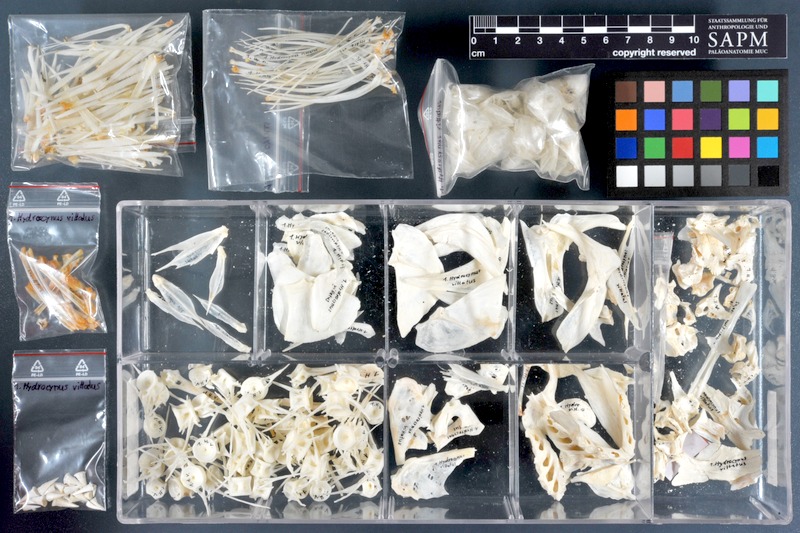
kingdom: Animalia
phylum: Chordata
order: Characiformes
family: Alestidae
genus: Hydrocynus
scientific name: Hydrocynus vittatus
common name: Tigerfish
